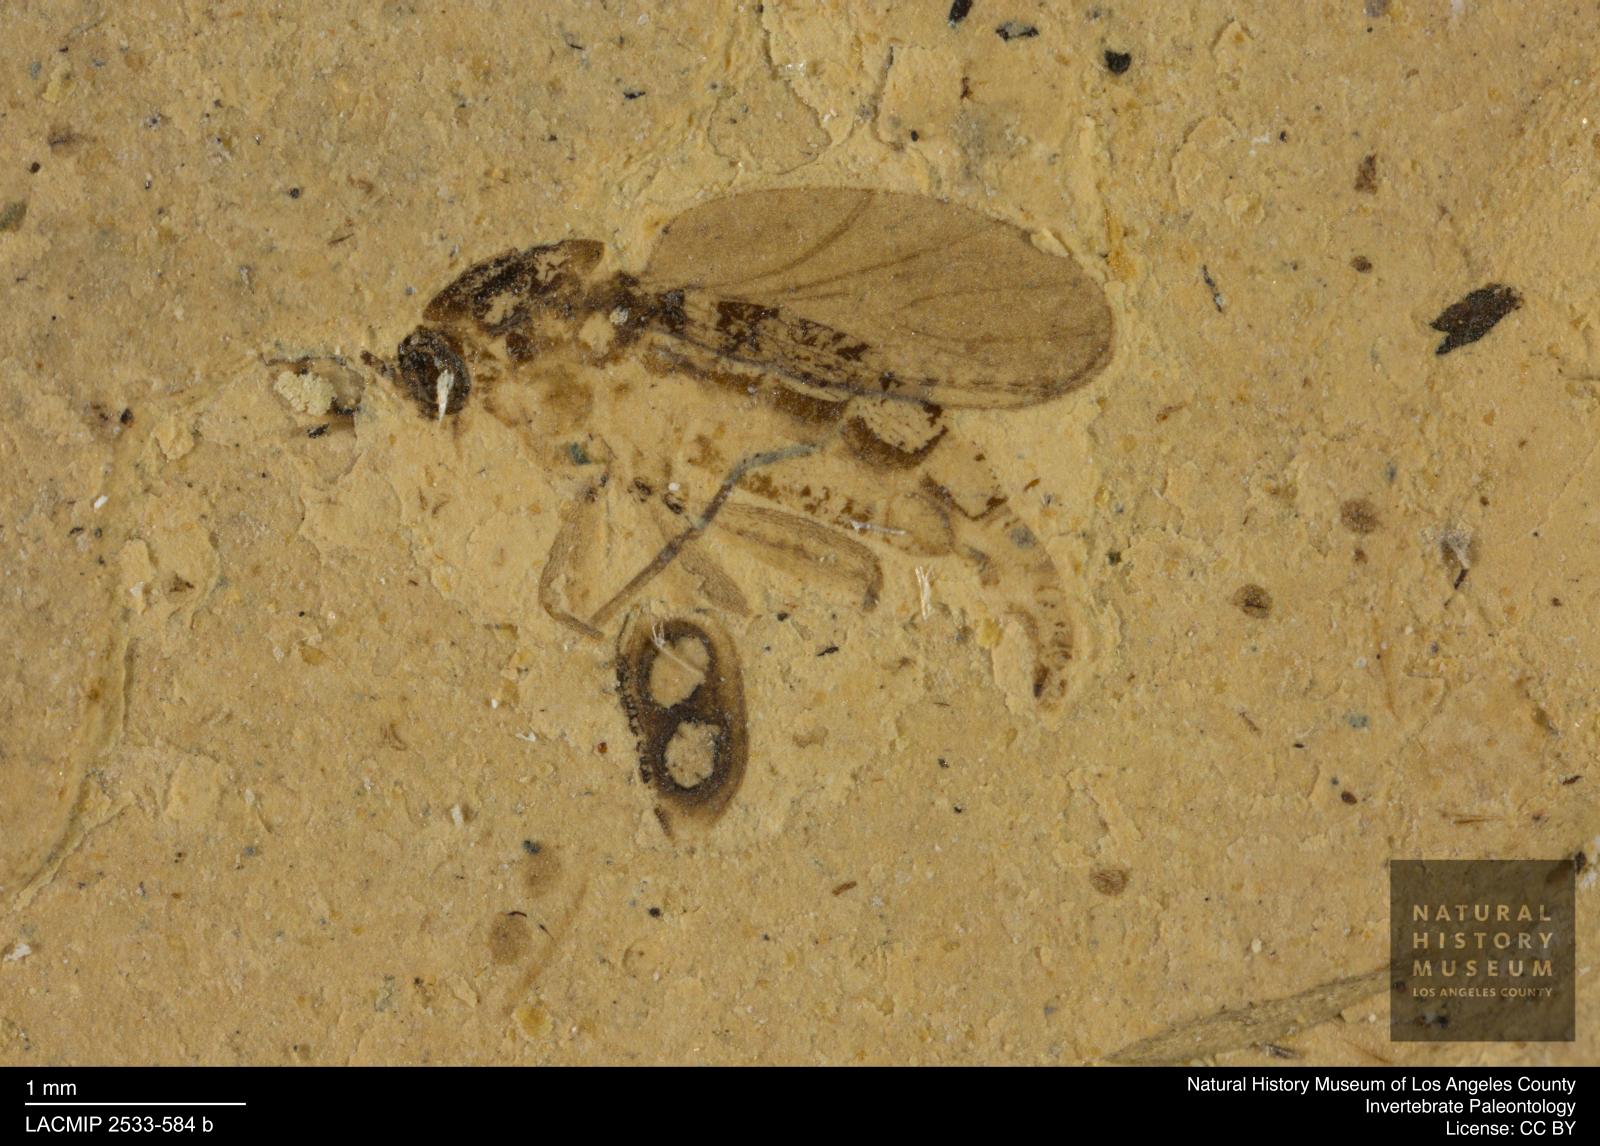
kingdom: Animalia
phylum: Arthropoda
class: Insecta
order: Diptera
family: Sciaridae
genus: Pseudolycoriella
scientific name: Pseudolycoriella jucunda
